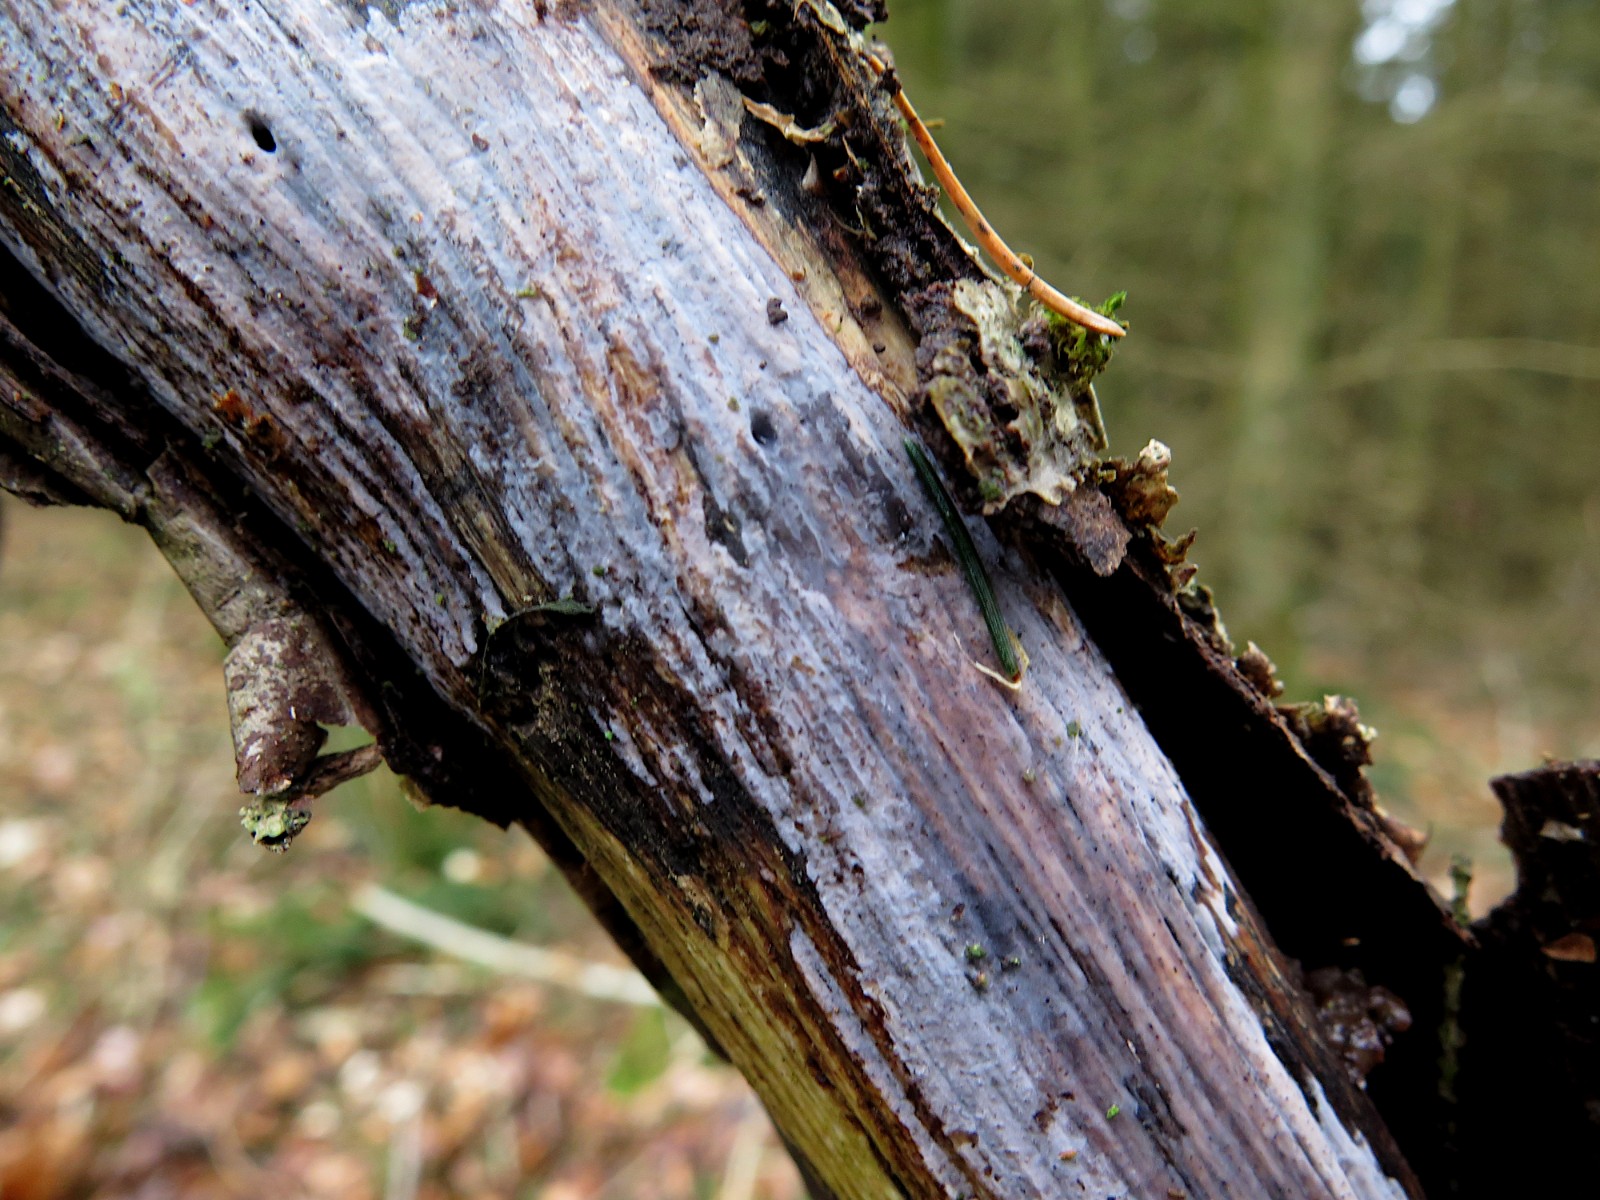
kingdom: Fungi
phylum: Basidiomycota
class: Tremellomycetes
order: Tremellales
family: Exidiaceae
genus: Exidiopsis
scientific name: Exidiopsis effusa
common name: smuk bævrehinde
